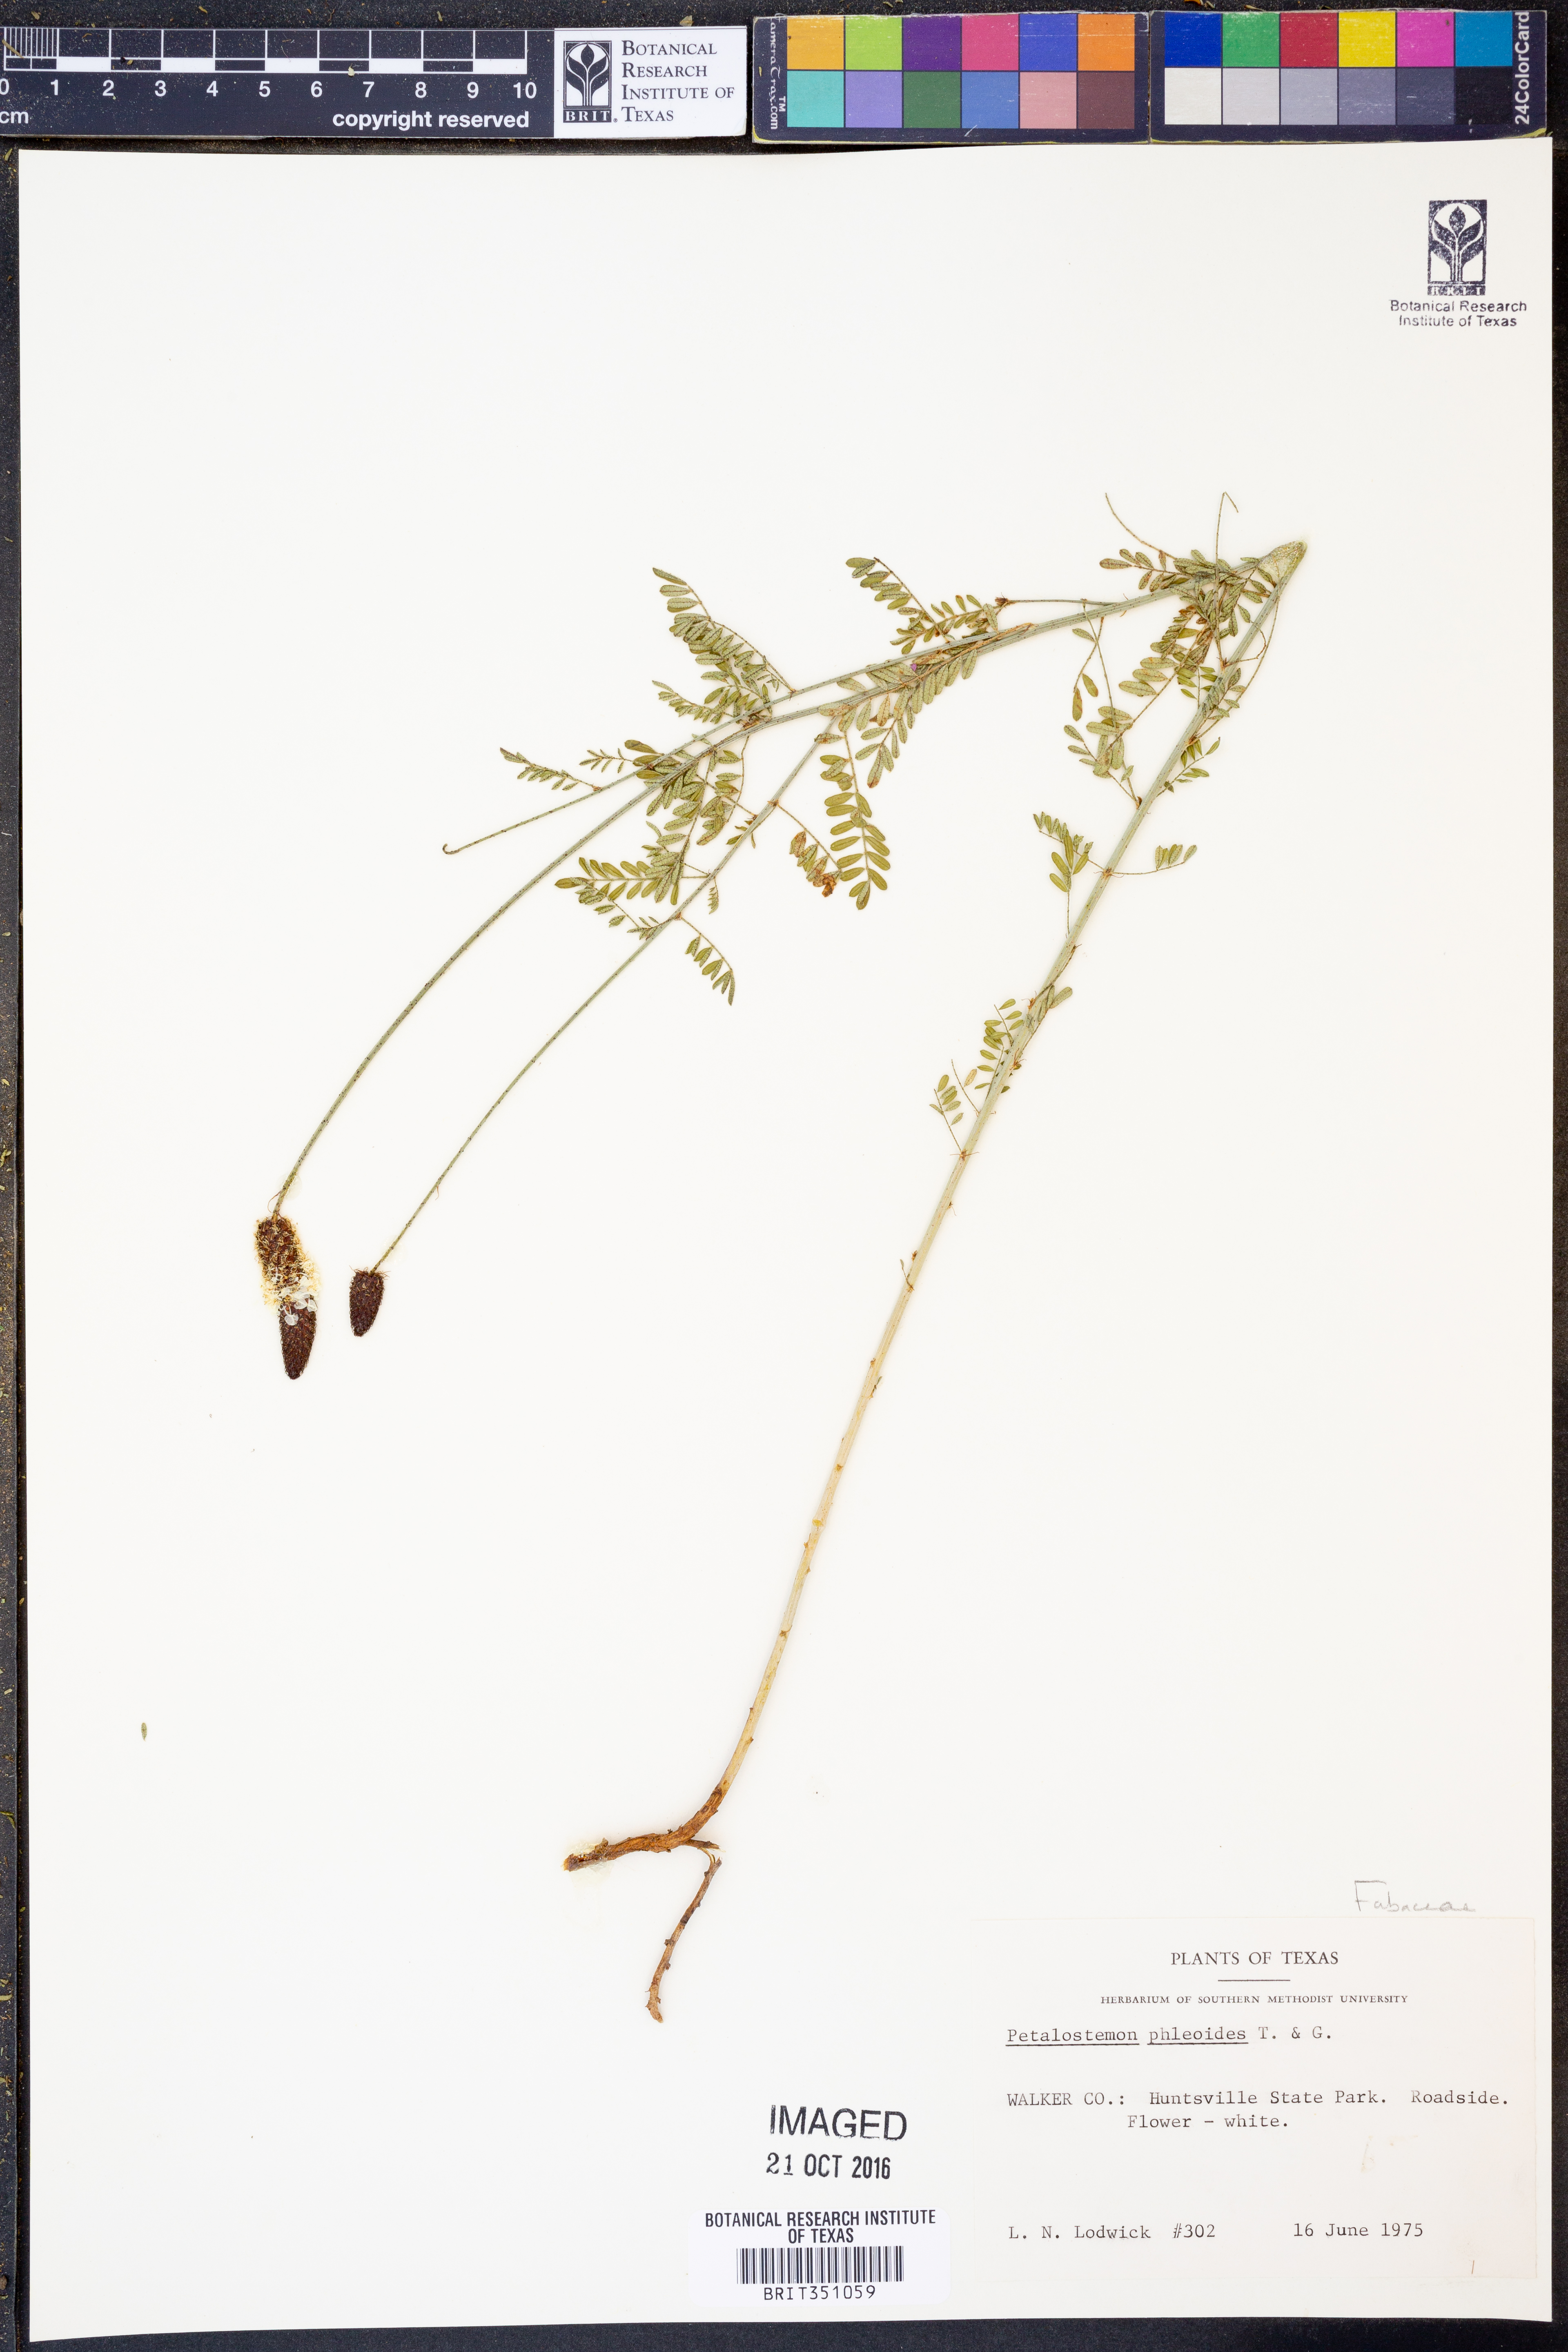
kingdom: Plantae
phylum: Tracheophyta
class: Magnoliopsida
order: Fabales
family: Fabaceae
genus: Dalea
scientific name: Dalea phleoides
